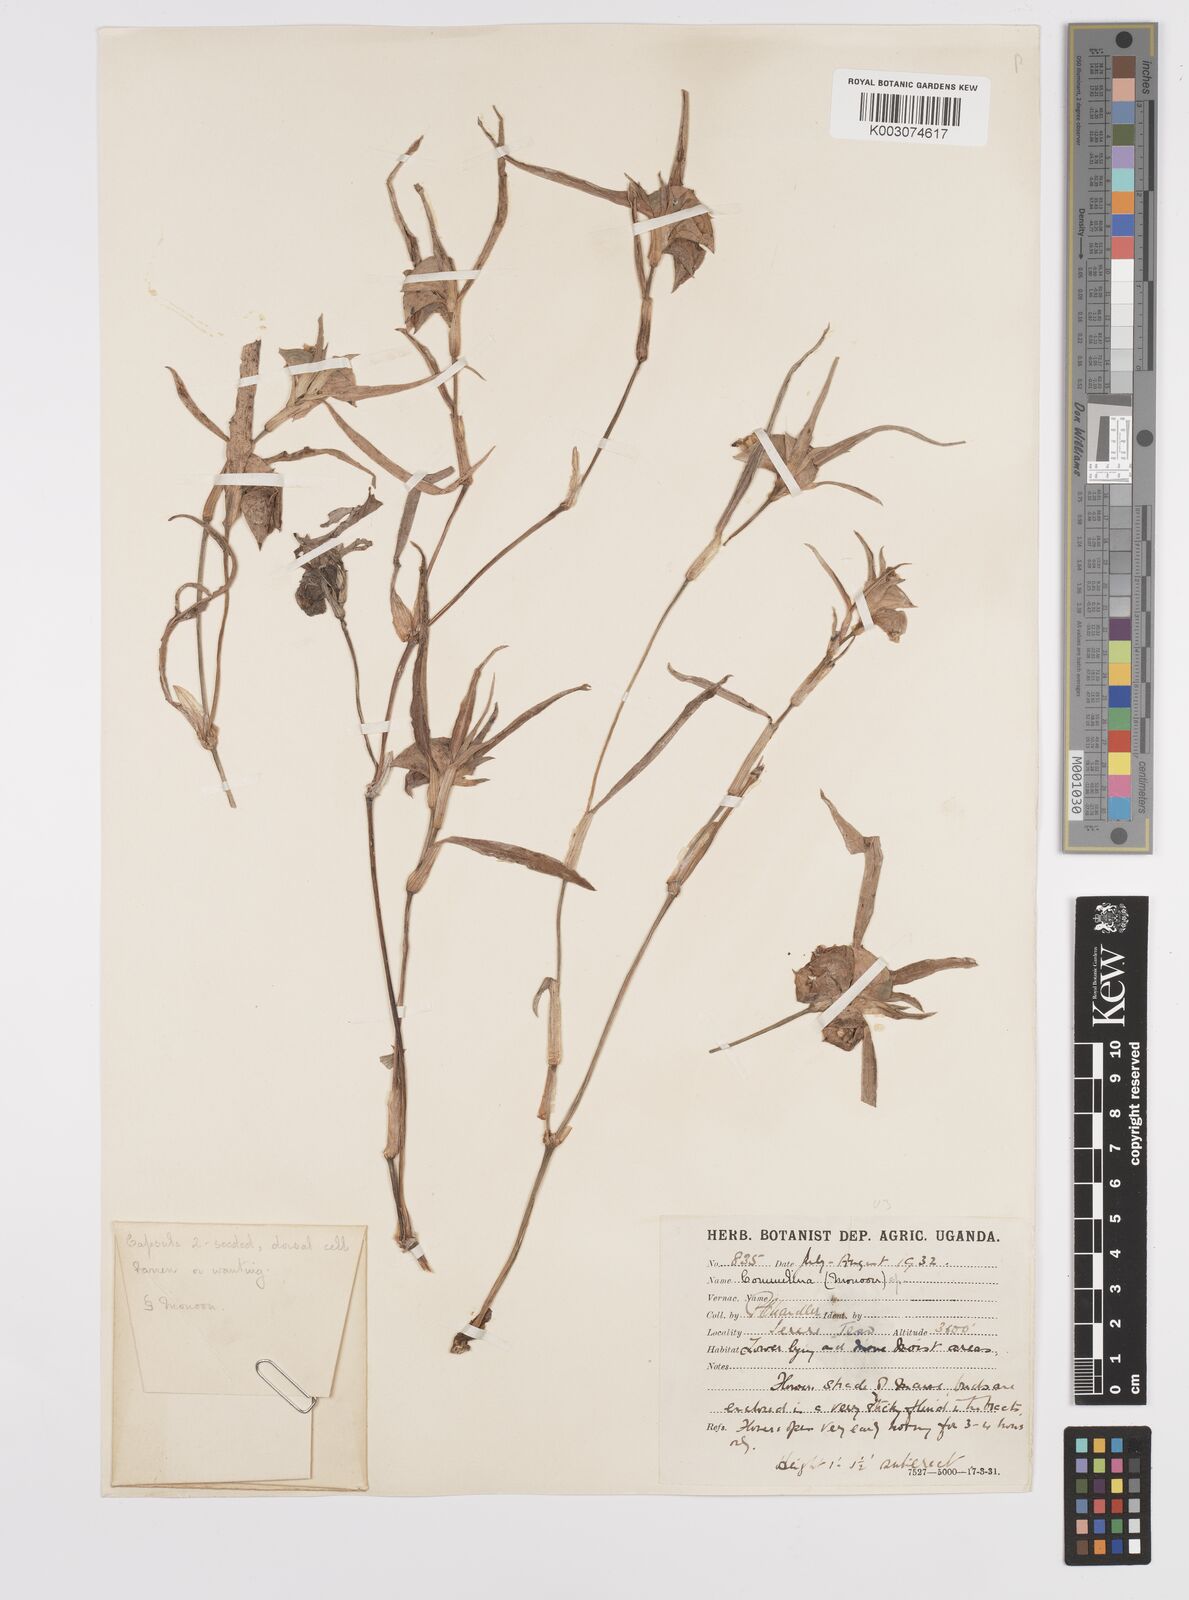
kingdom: Plantae
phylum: Tracheophyta
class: Liliopsida
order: Commelinales
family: Commelinaceae
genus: Commelina
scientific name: Commelina erecta
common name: Blousel blommetjie
